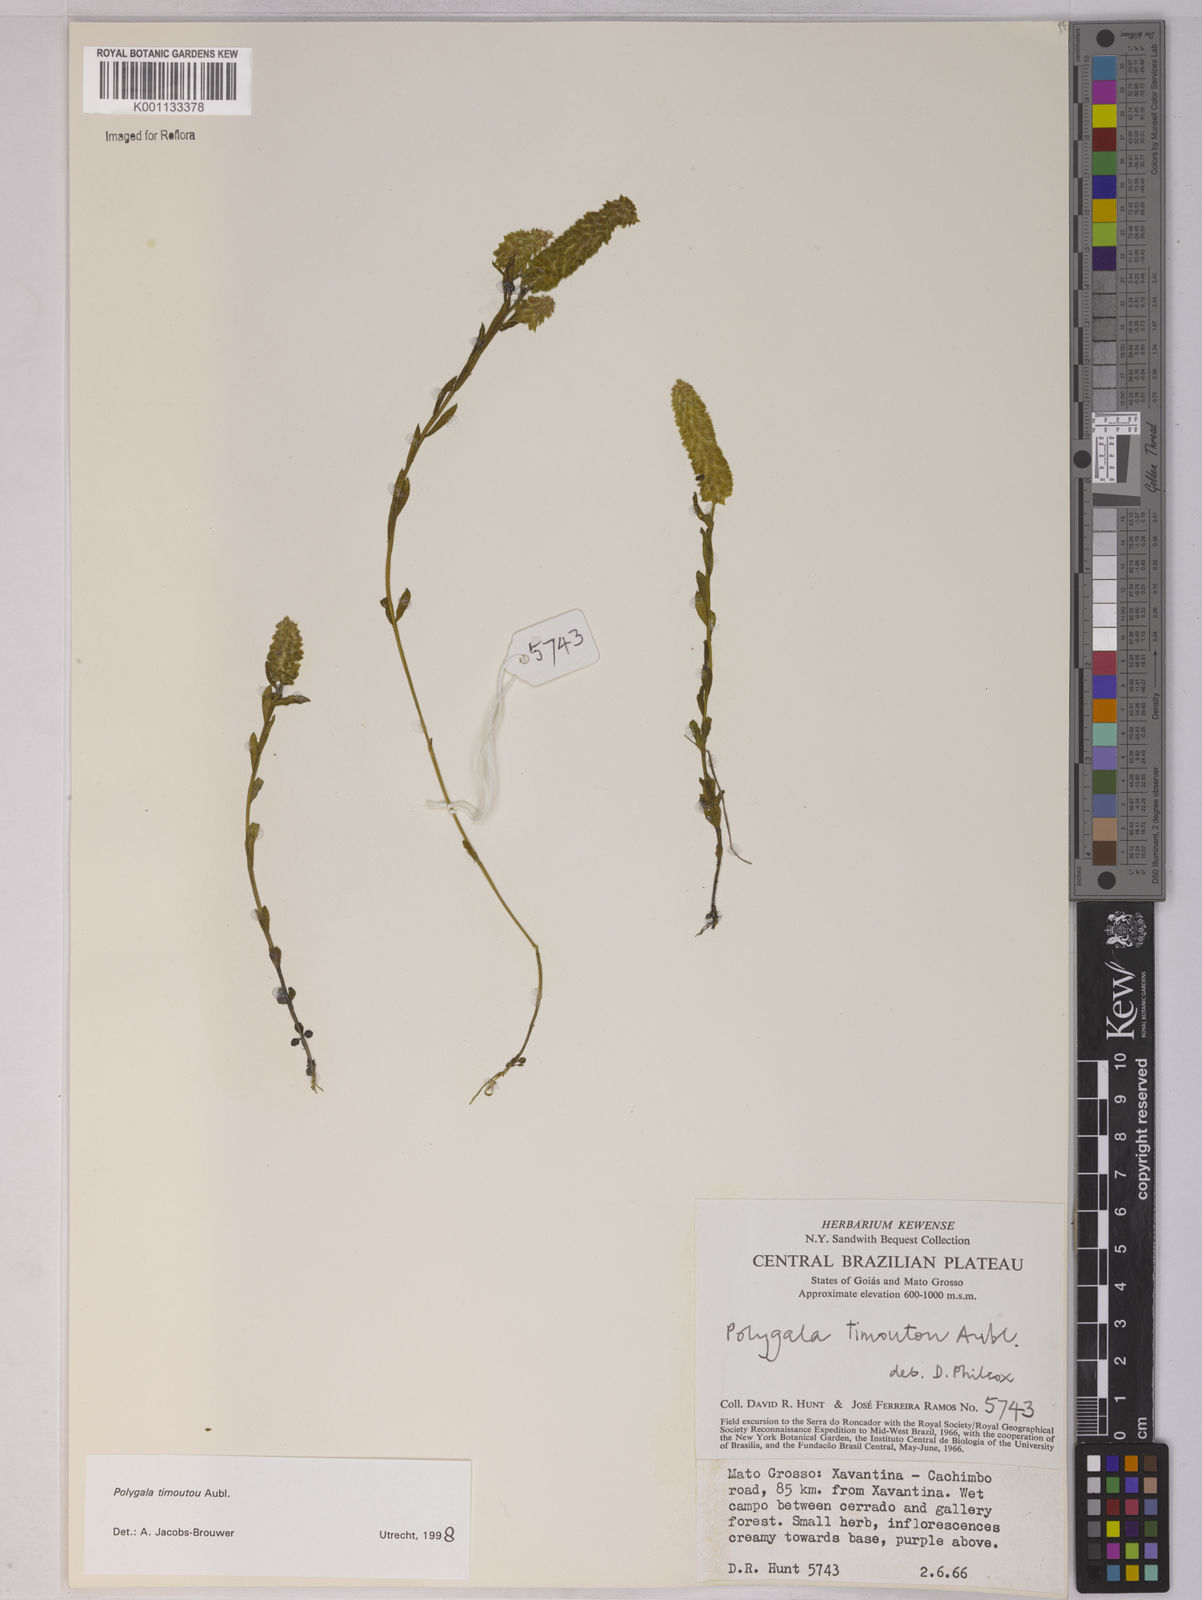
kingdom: Plantae
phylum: Tracheophyta
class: Magnoliopsida
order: Fabales
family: Polygalaceae
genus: Polygala
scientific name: Polygala timoutoides
